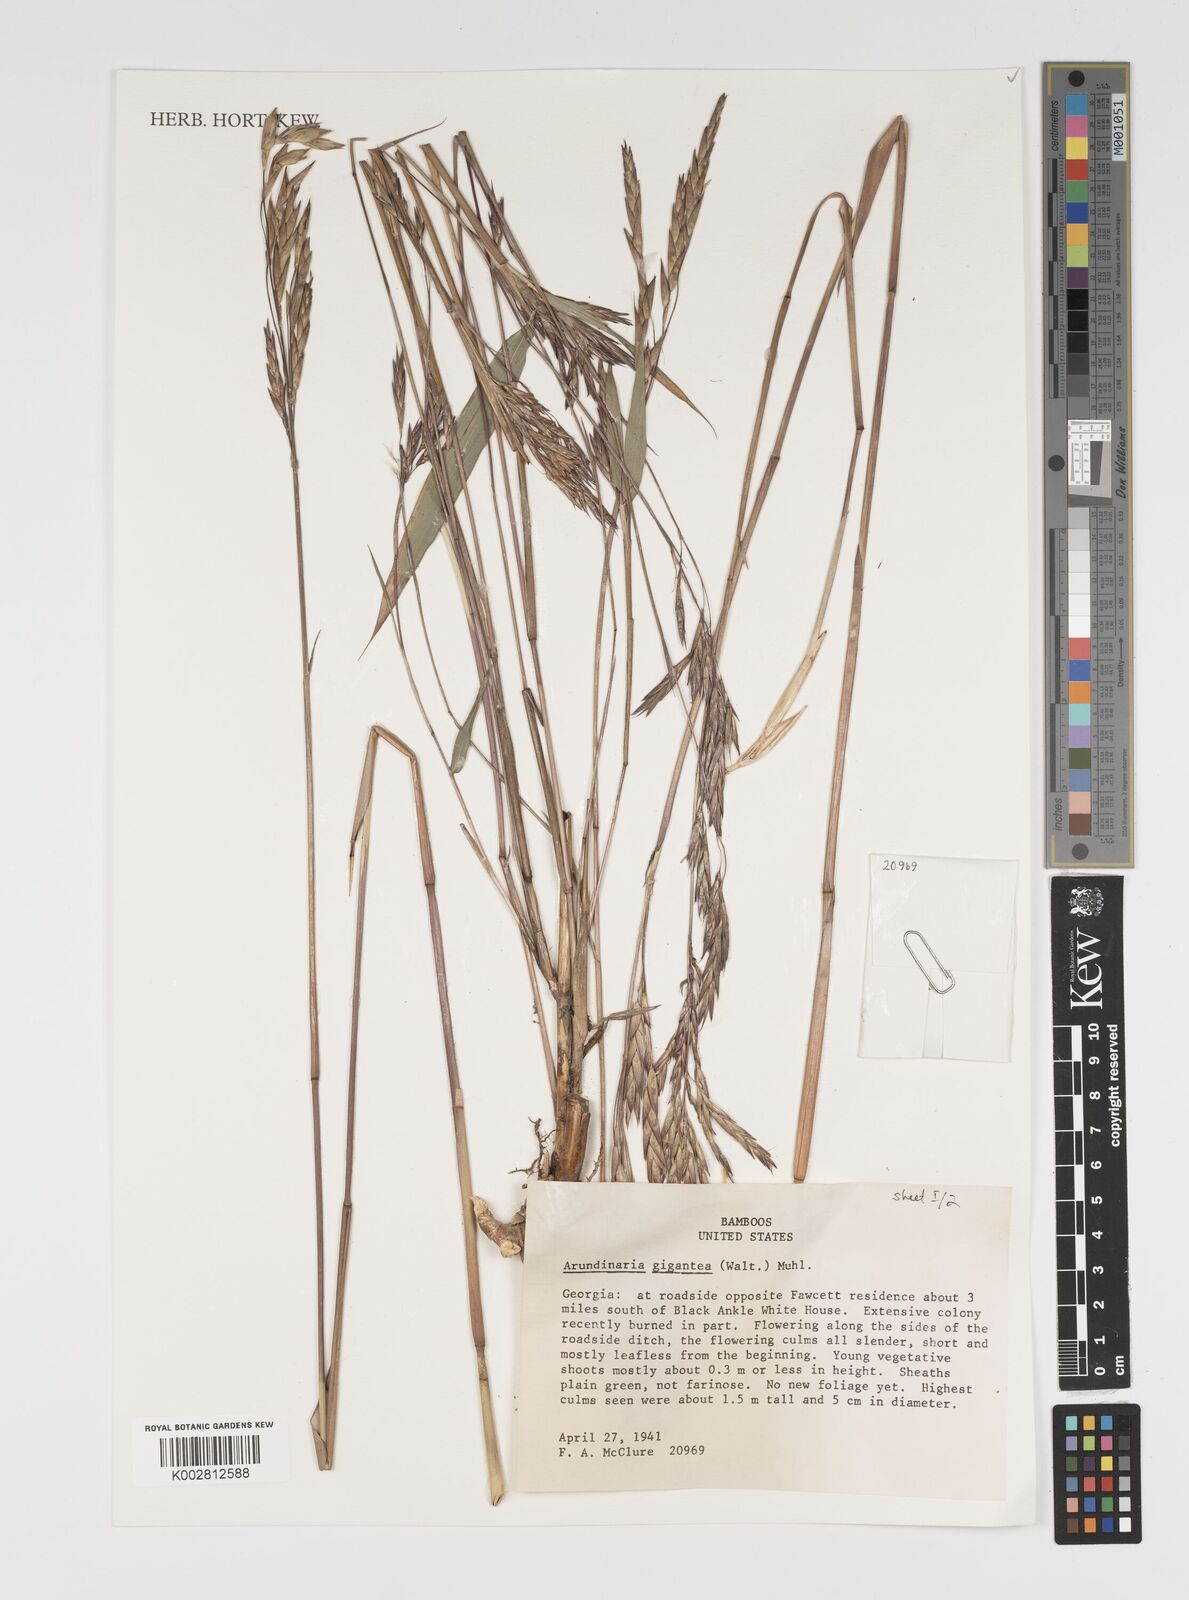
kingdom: Plantae
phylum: Tracheophyta
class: Liliopsida
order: Poales
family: Poaceae
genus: Arundinaria
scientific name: Arundinaria gigantea
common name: Giant cane
